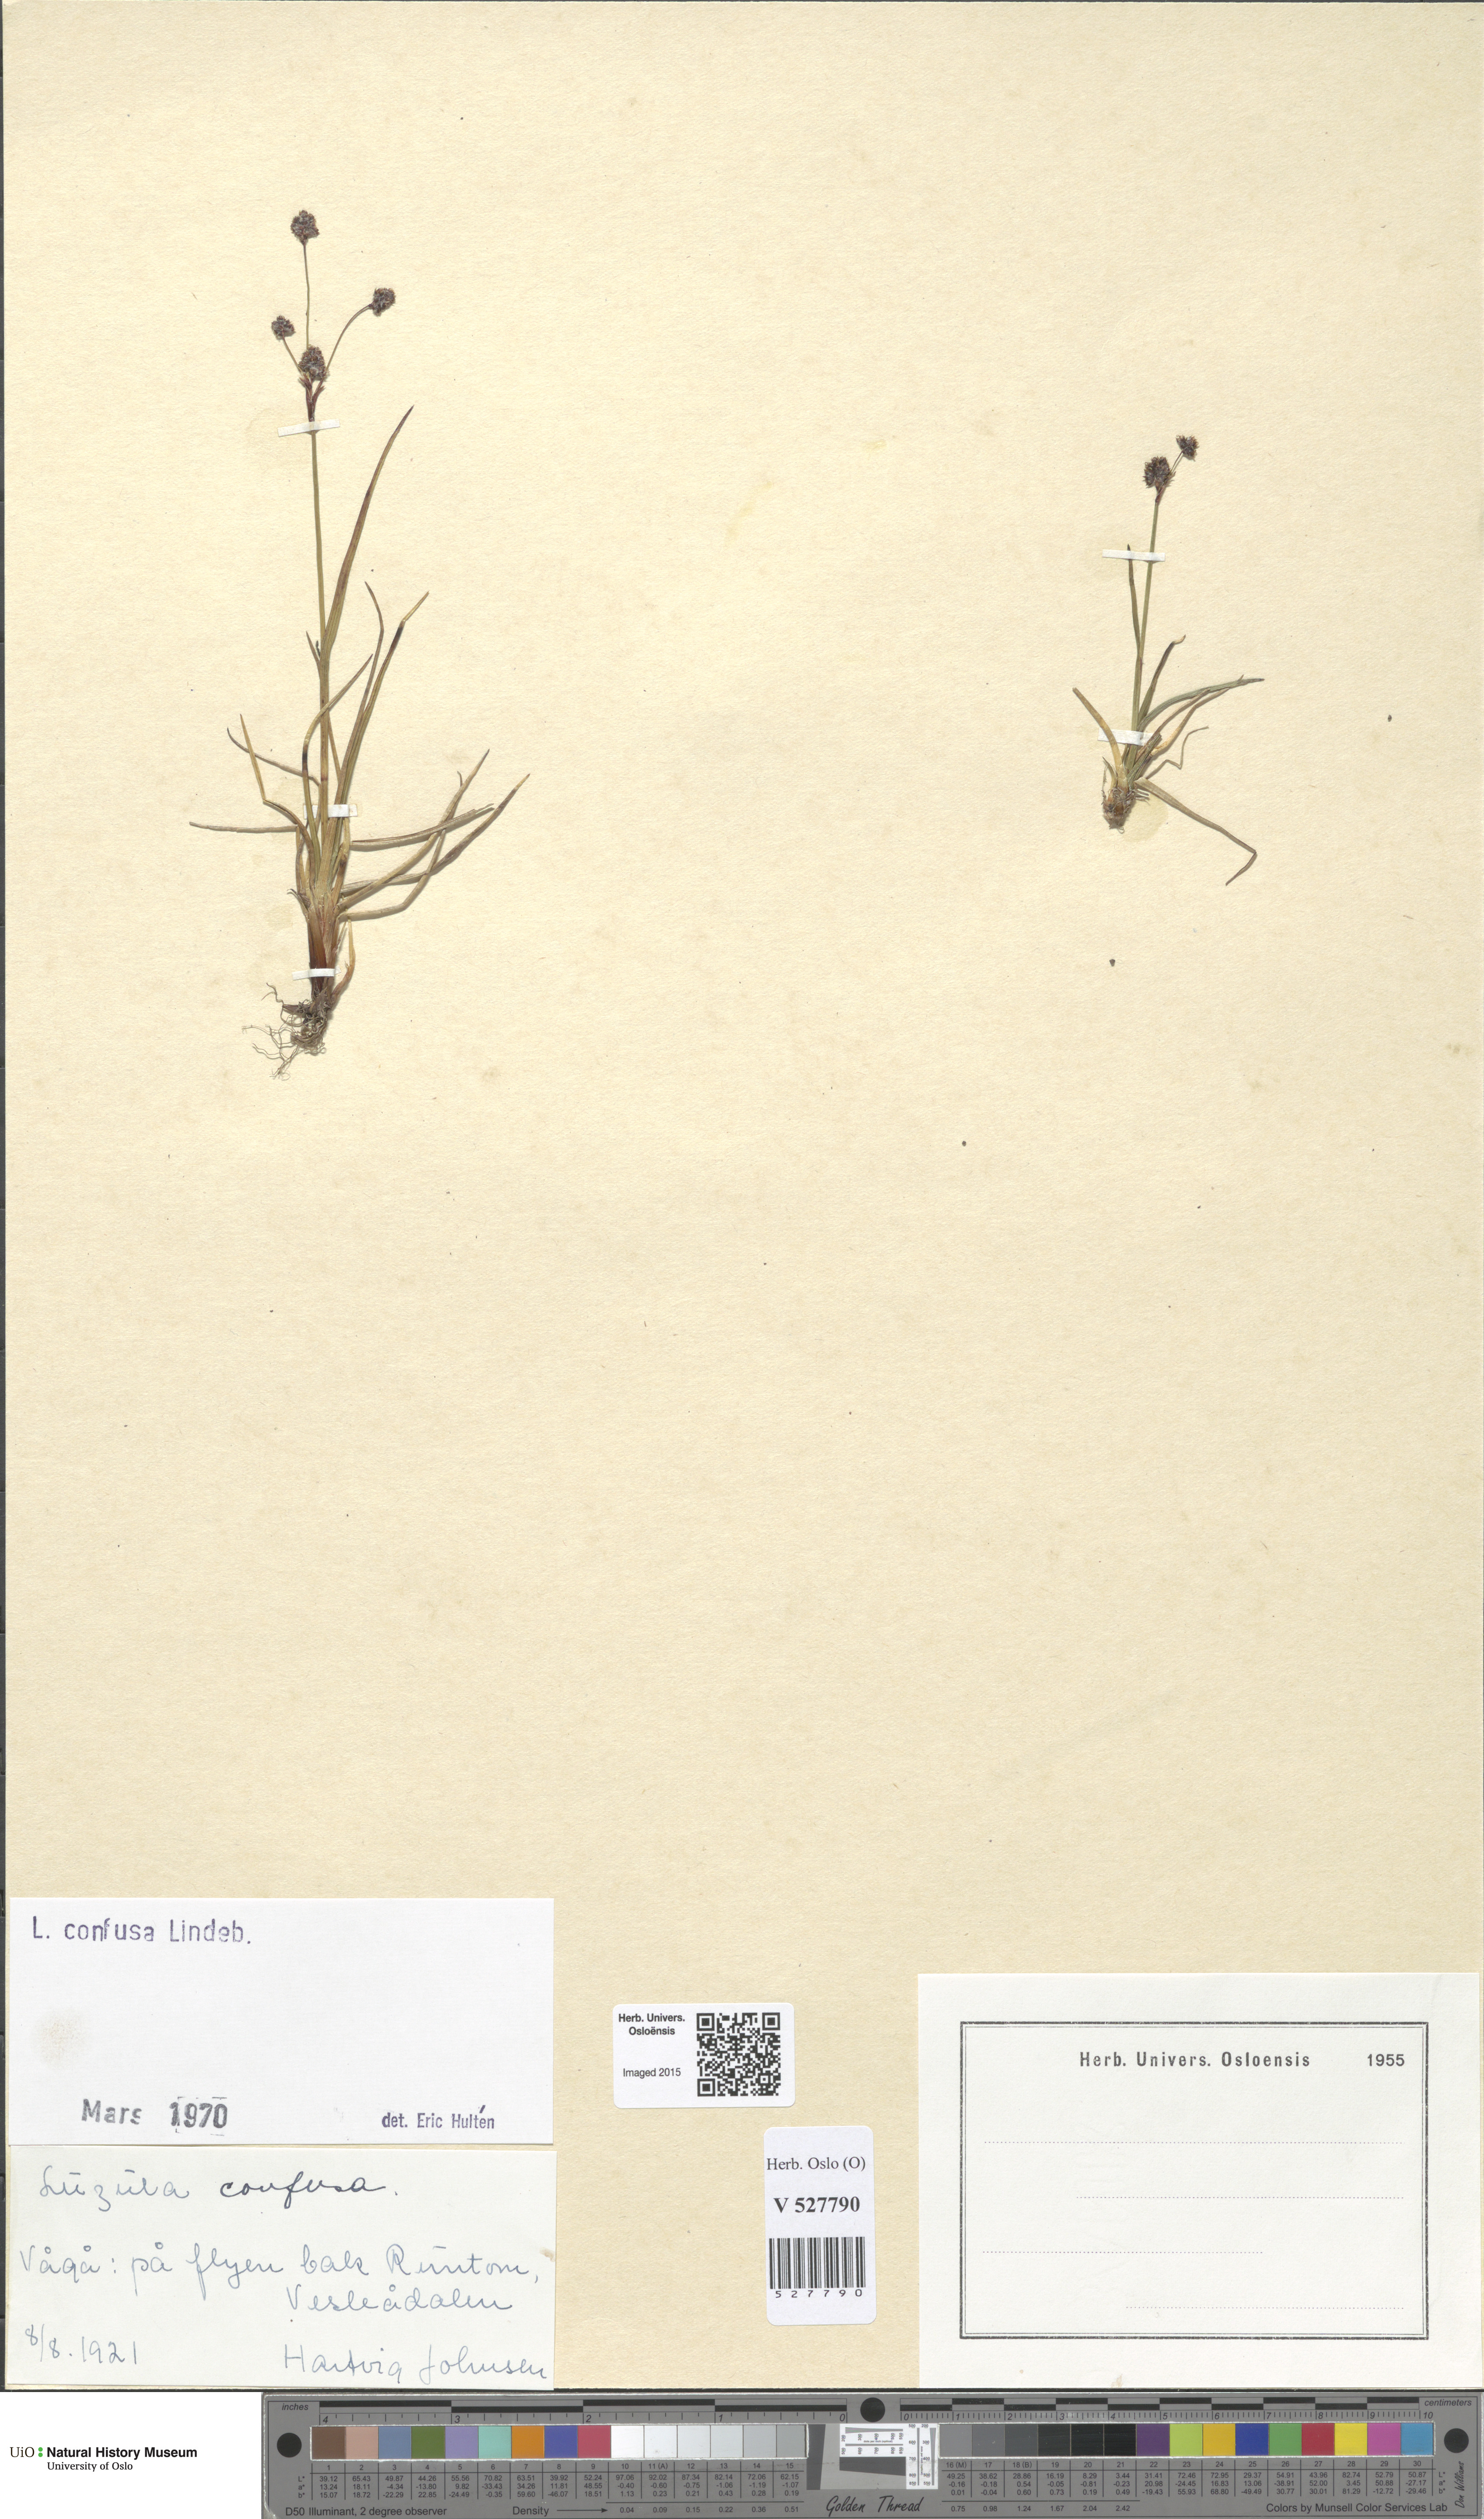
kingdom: Plantae
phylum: Tracheophyta
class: Liliopsida
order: Poales
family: Juncaceae
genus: Luzula
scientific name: Luzula confusa
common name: Northern wood rush
